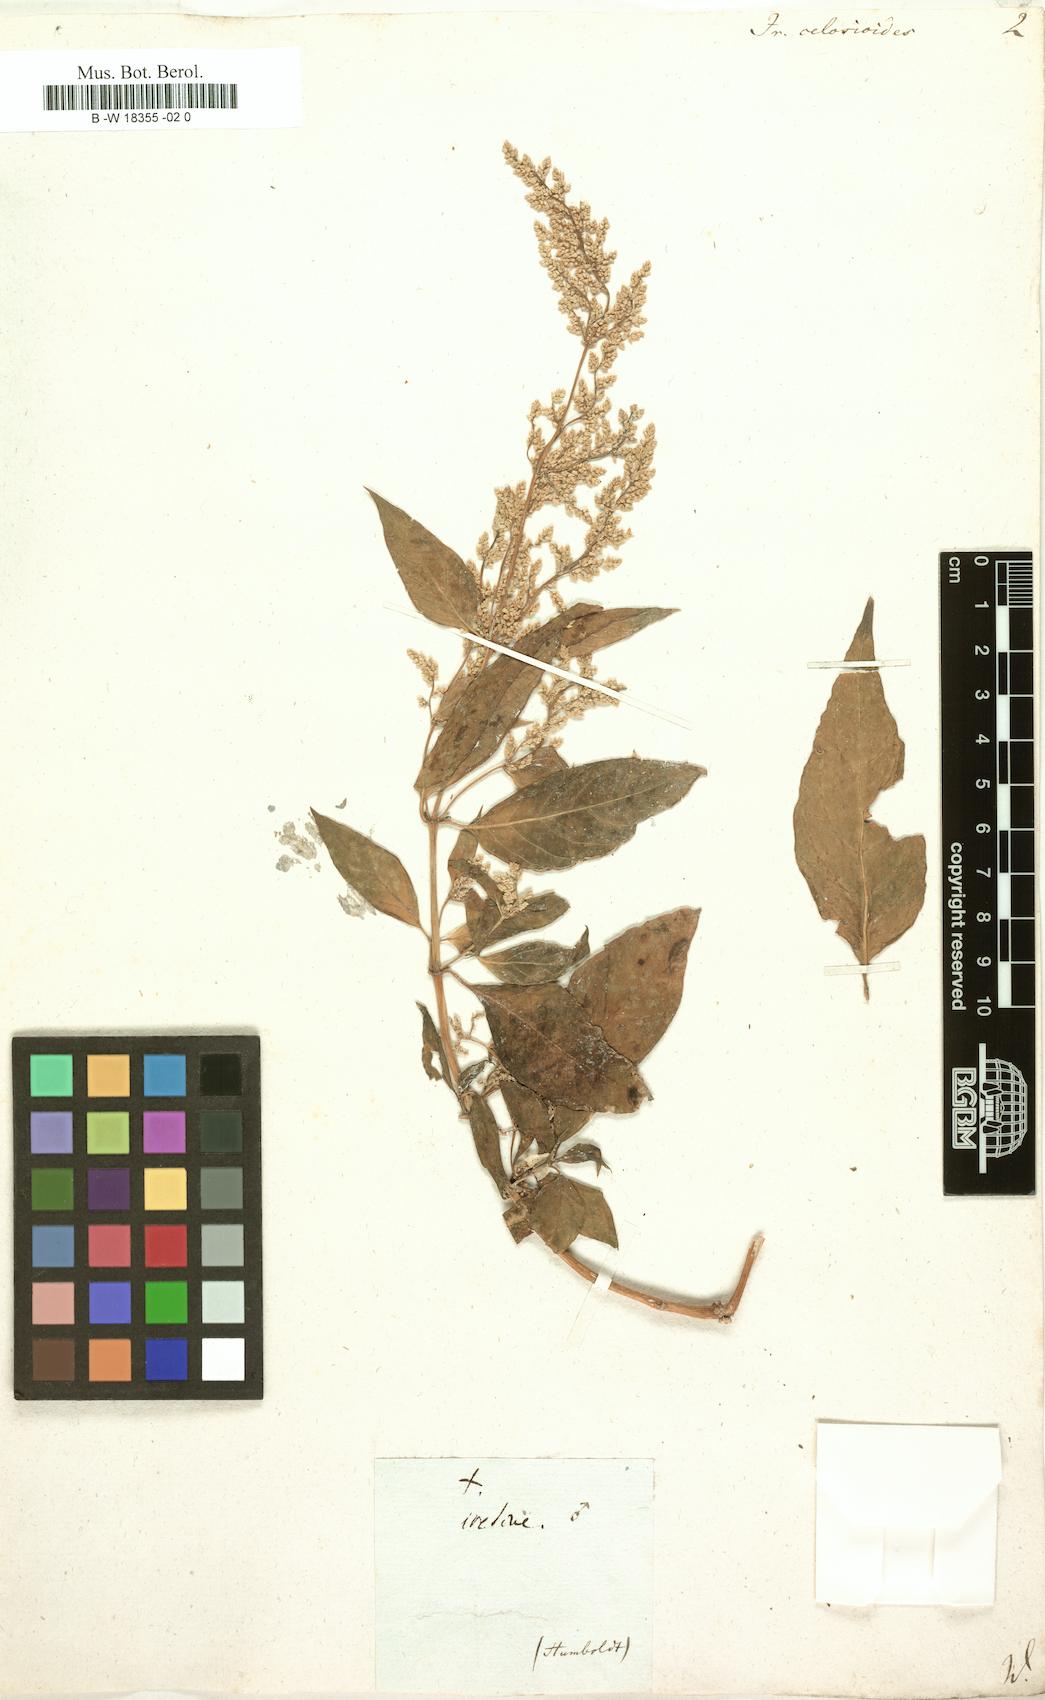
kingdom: Plantae
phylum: Tracheophyta
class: Magnoliopsida
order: Caryophyllales
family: Amaranthaceae
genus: Iresine
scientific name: Iresine rhizomatosa
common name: Juda's-bush
